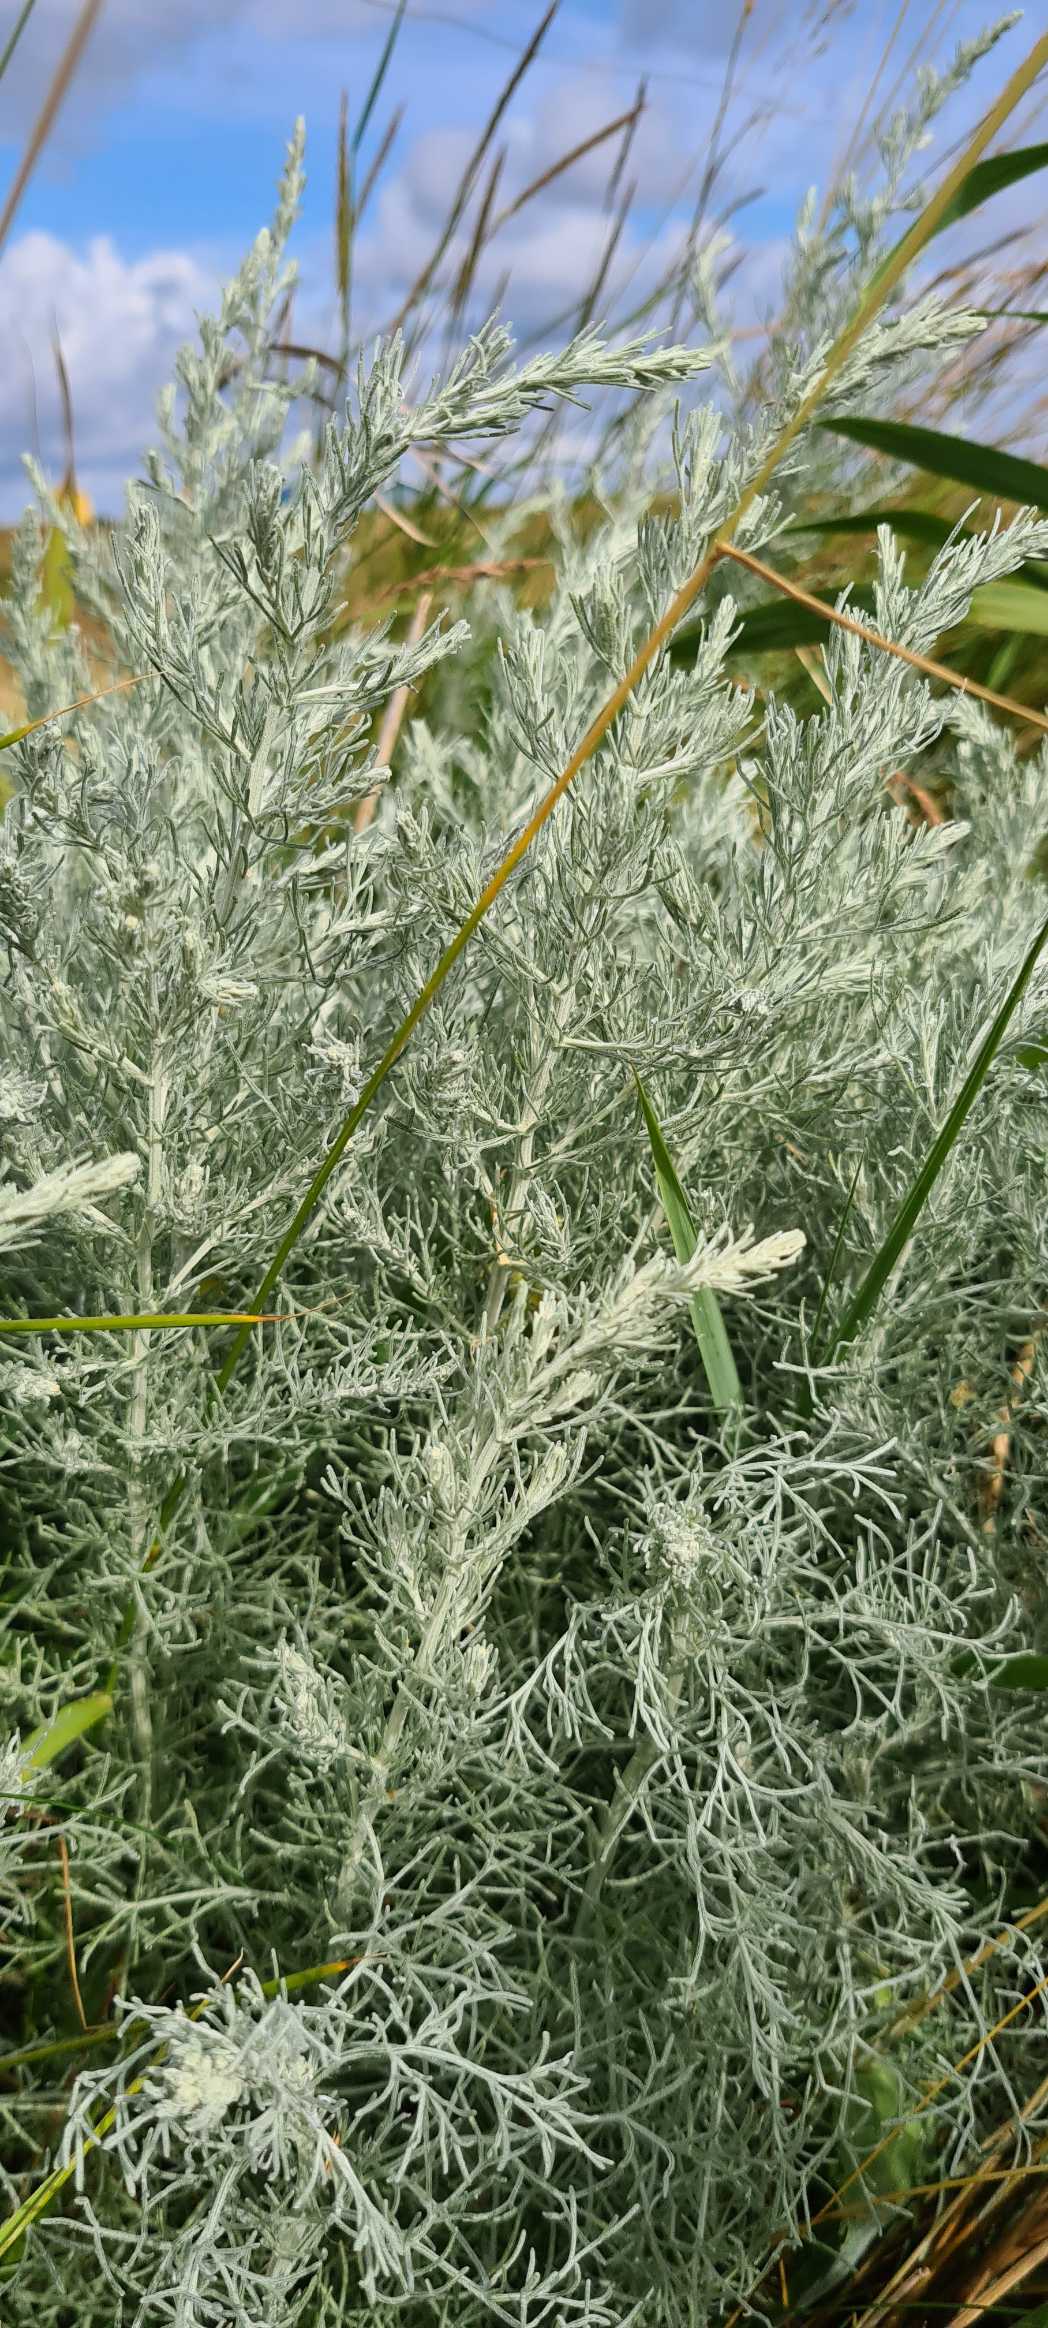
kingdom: Plantae
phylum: Tracheophyta
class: Magnoliopsida
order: Asterales
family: Asteraceae
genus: Artemisia
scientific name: Artemisia maritima
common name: Strandmalurt
